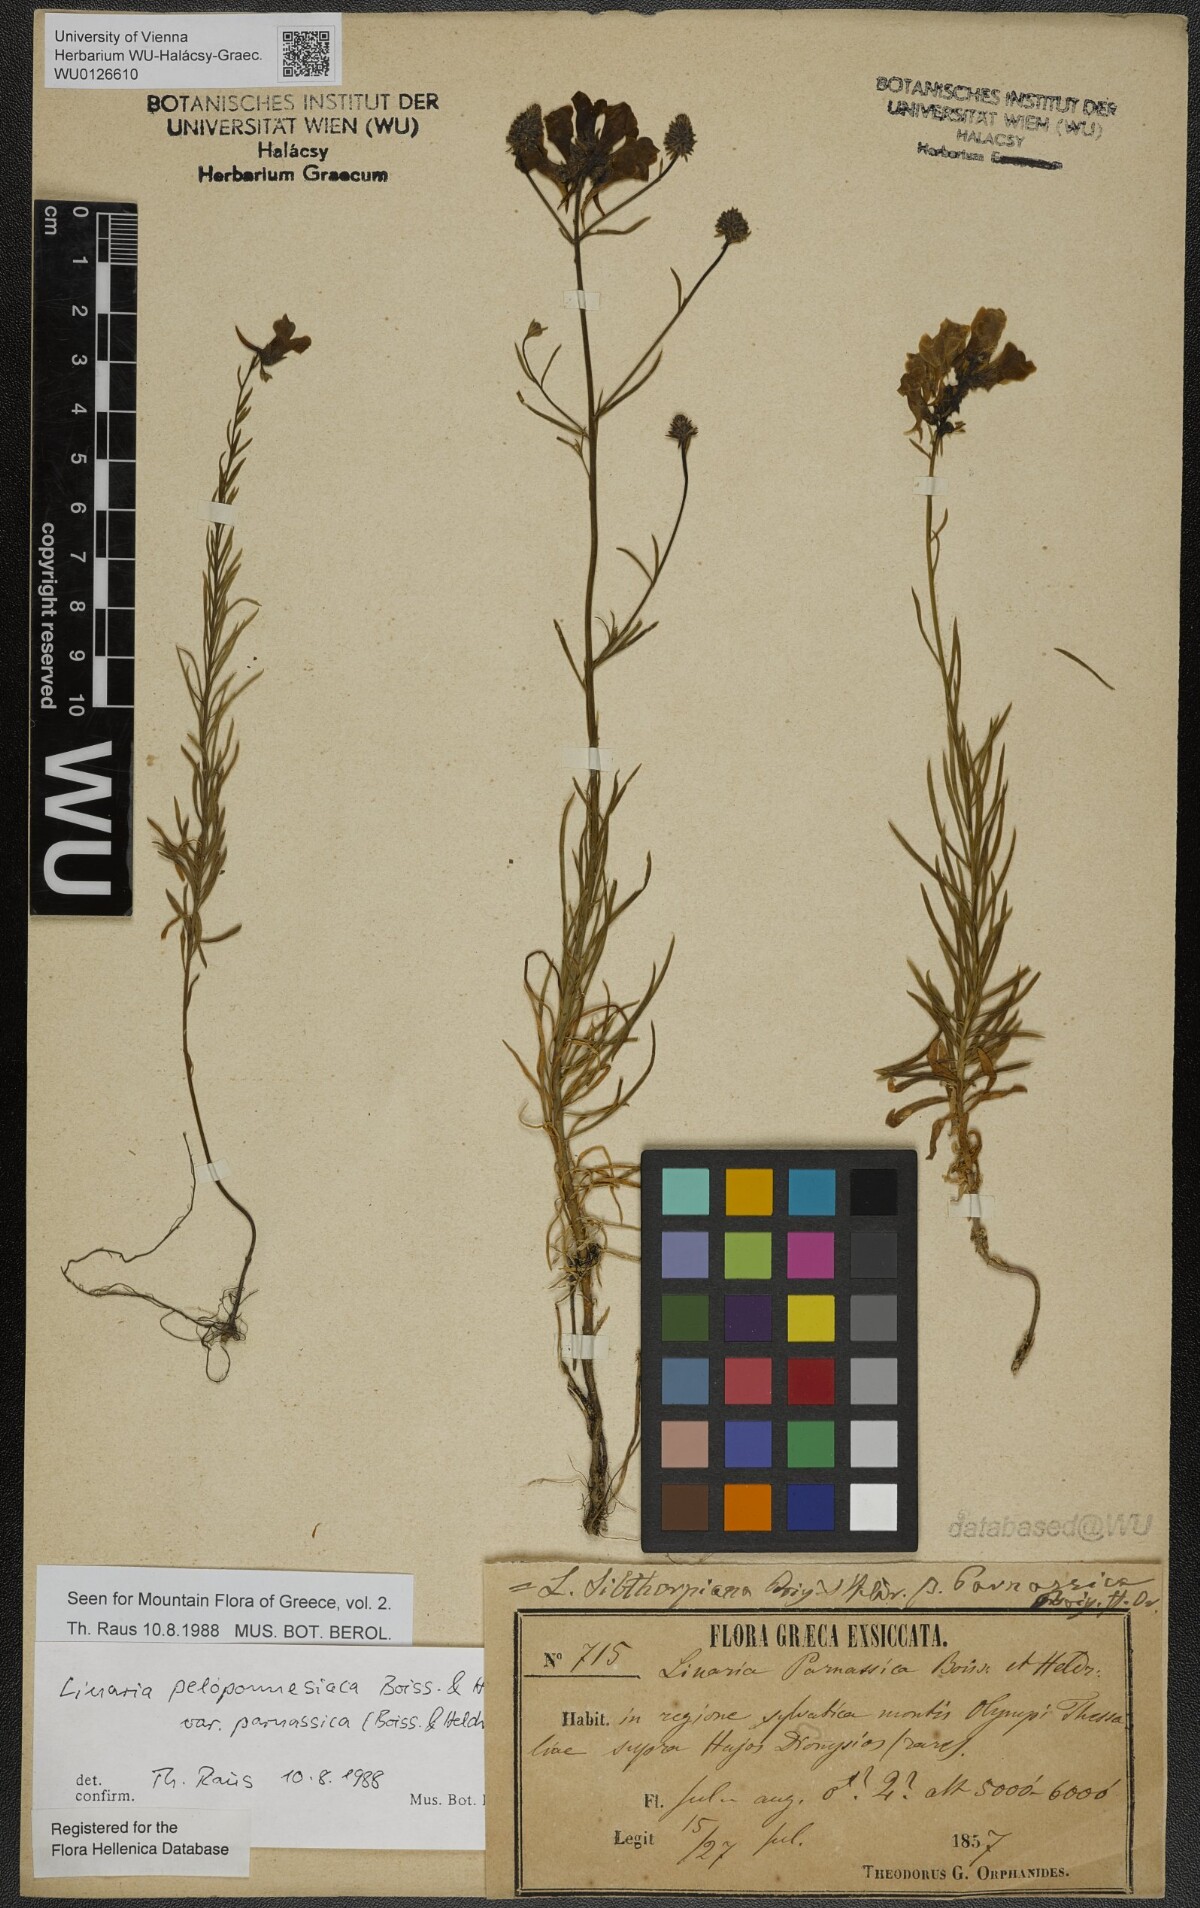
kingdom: Plantae
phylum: Tracheophyta
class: Magnoliopsida
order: Lamiales
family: Plantaginaceae
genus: Linaria
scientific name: Linaria peloponnesiaca
